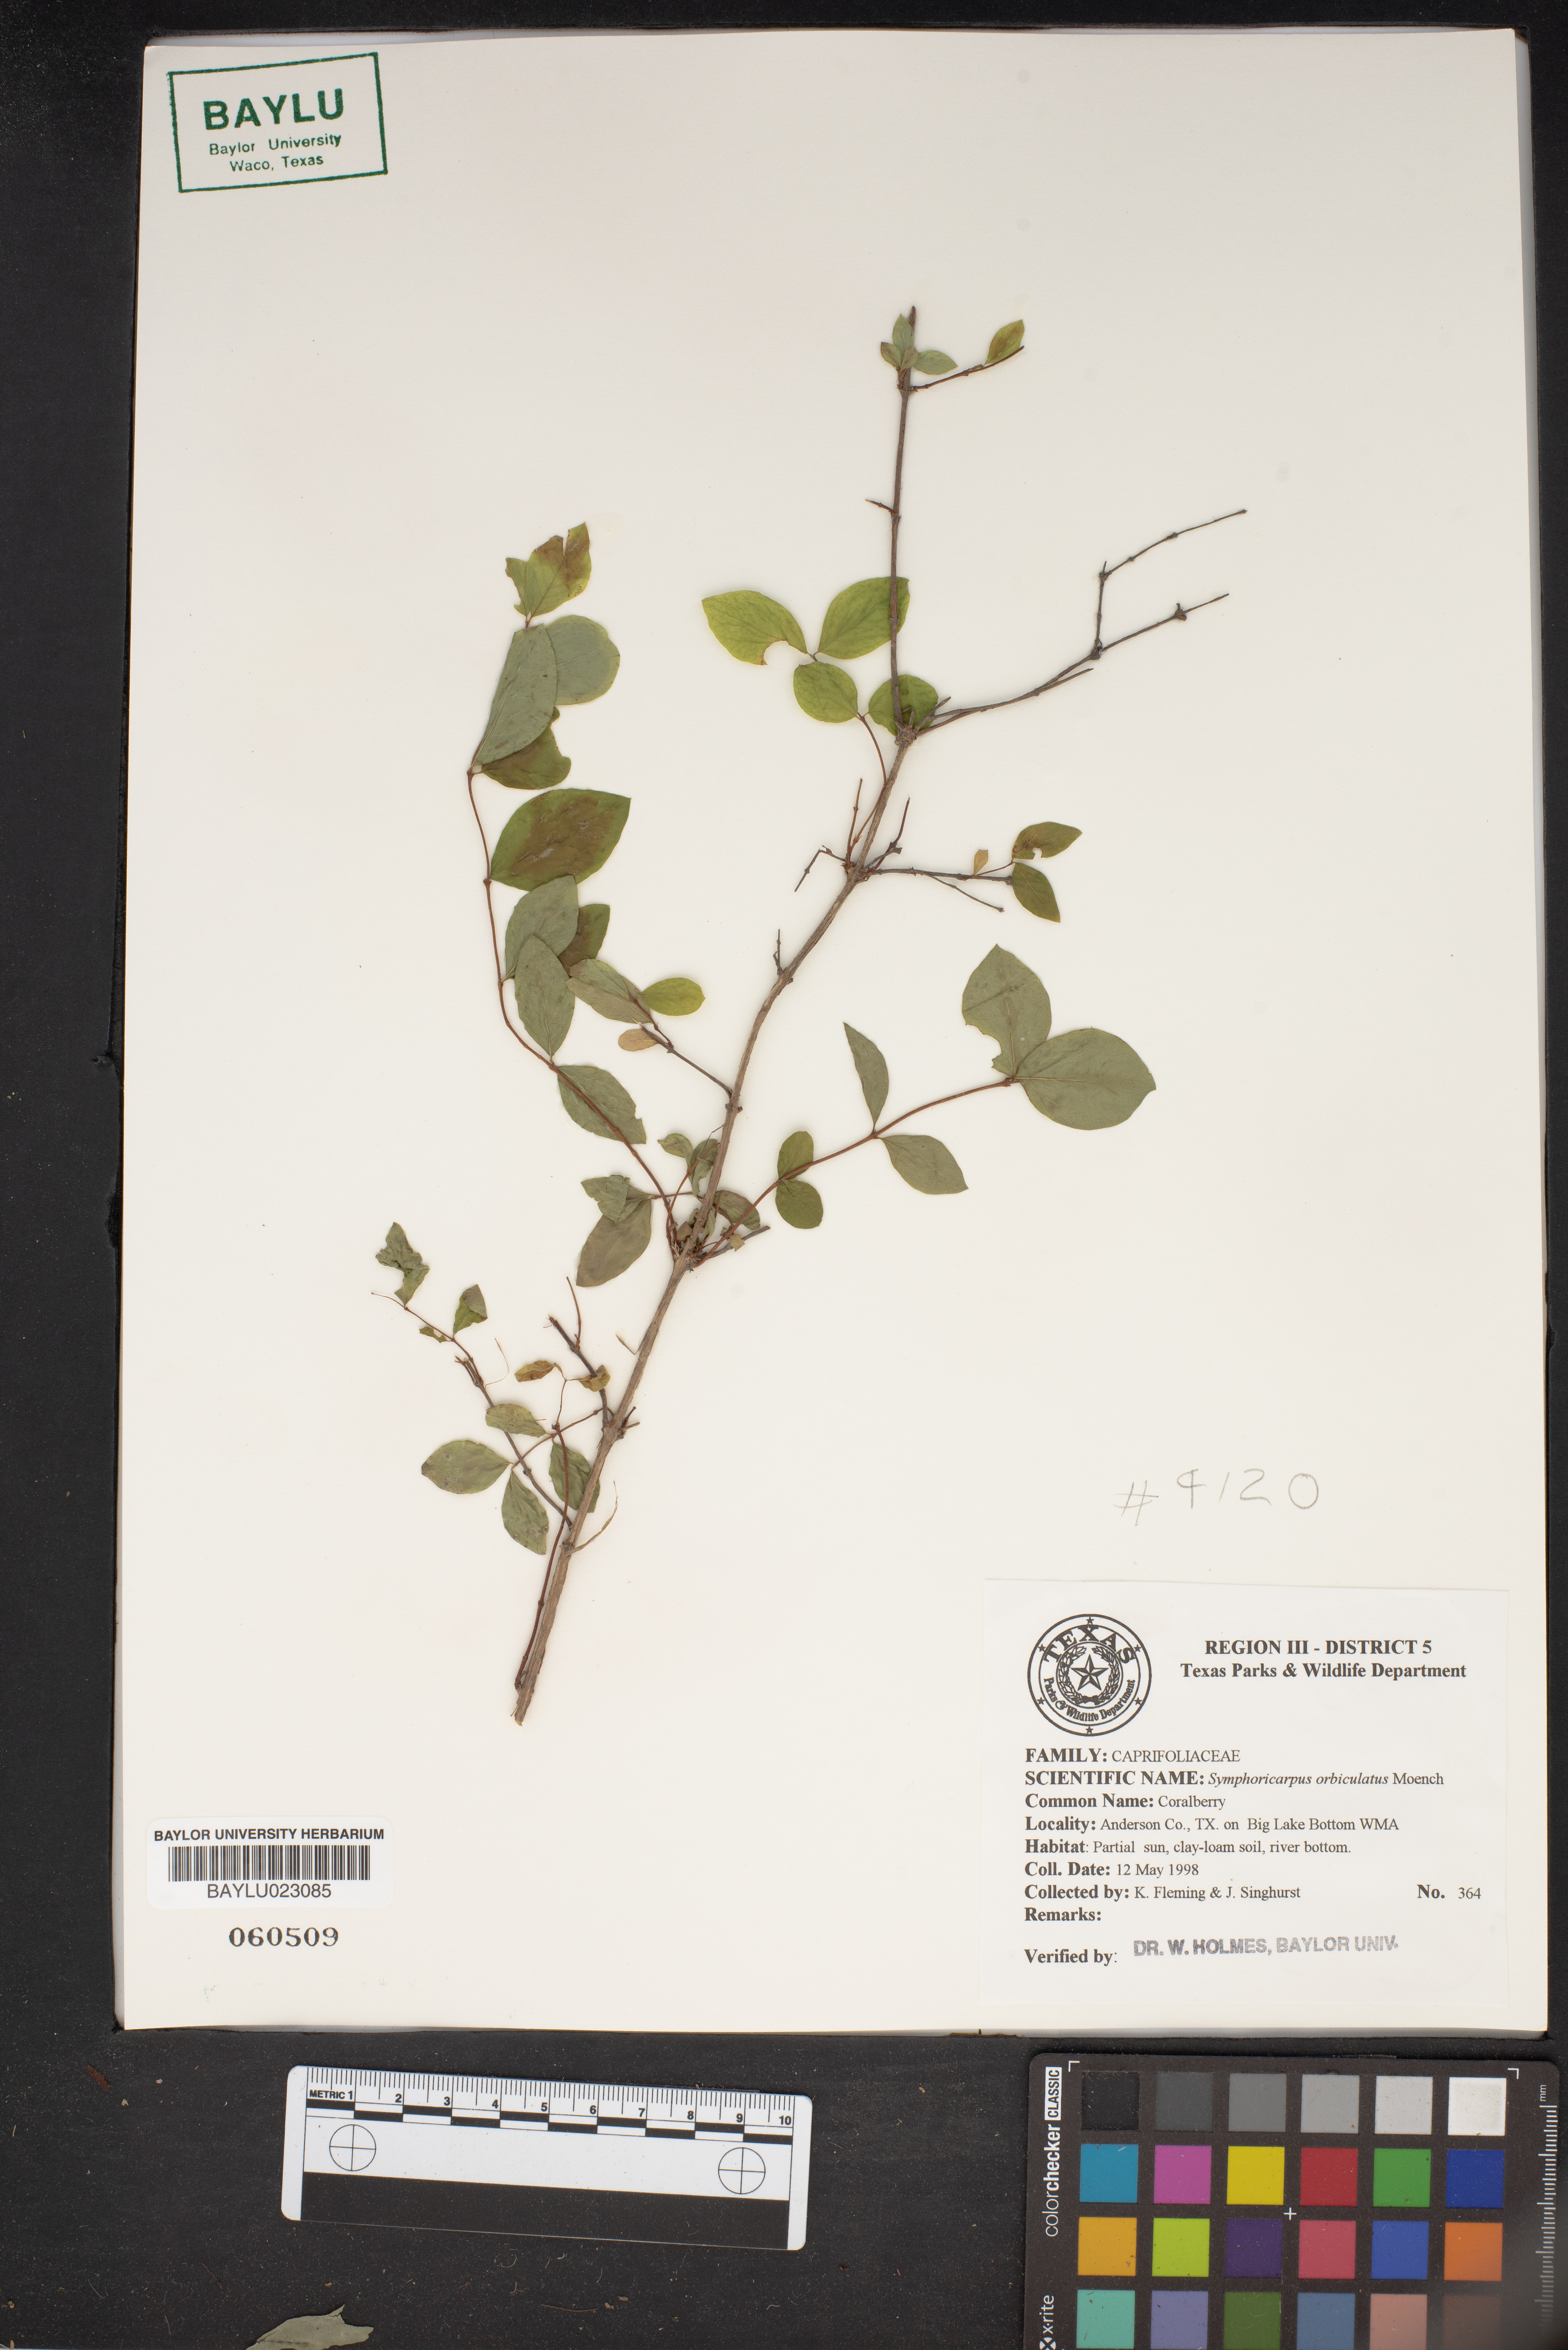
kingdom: Plantae
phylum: Tracheophyta
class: Magnoliopsida
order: Dipsacales
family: Caprifoliaceae
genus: Symphoricarpos
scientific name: Symphoricarpos orbiculatus
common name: Coralberry
